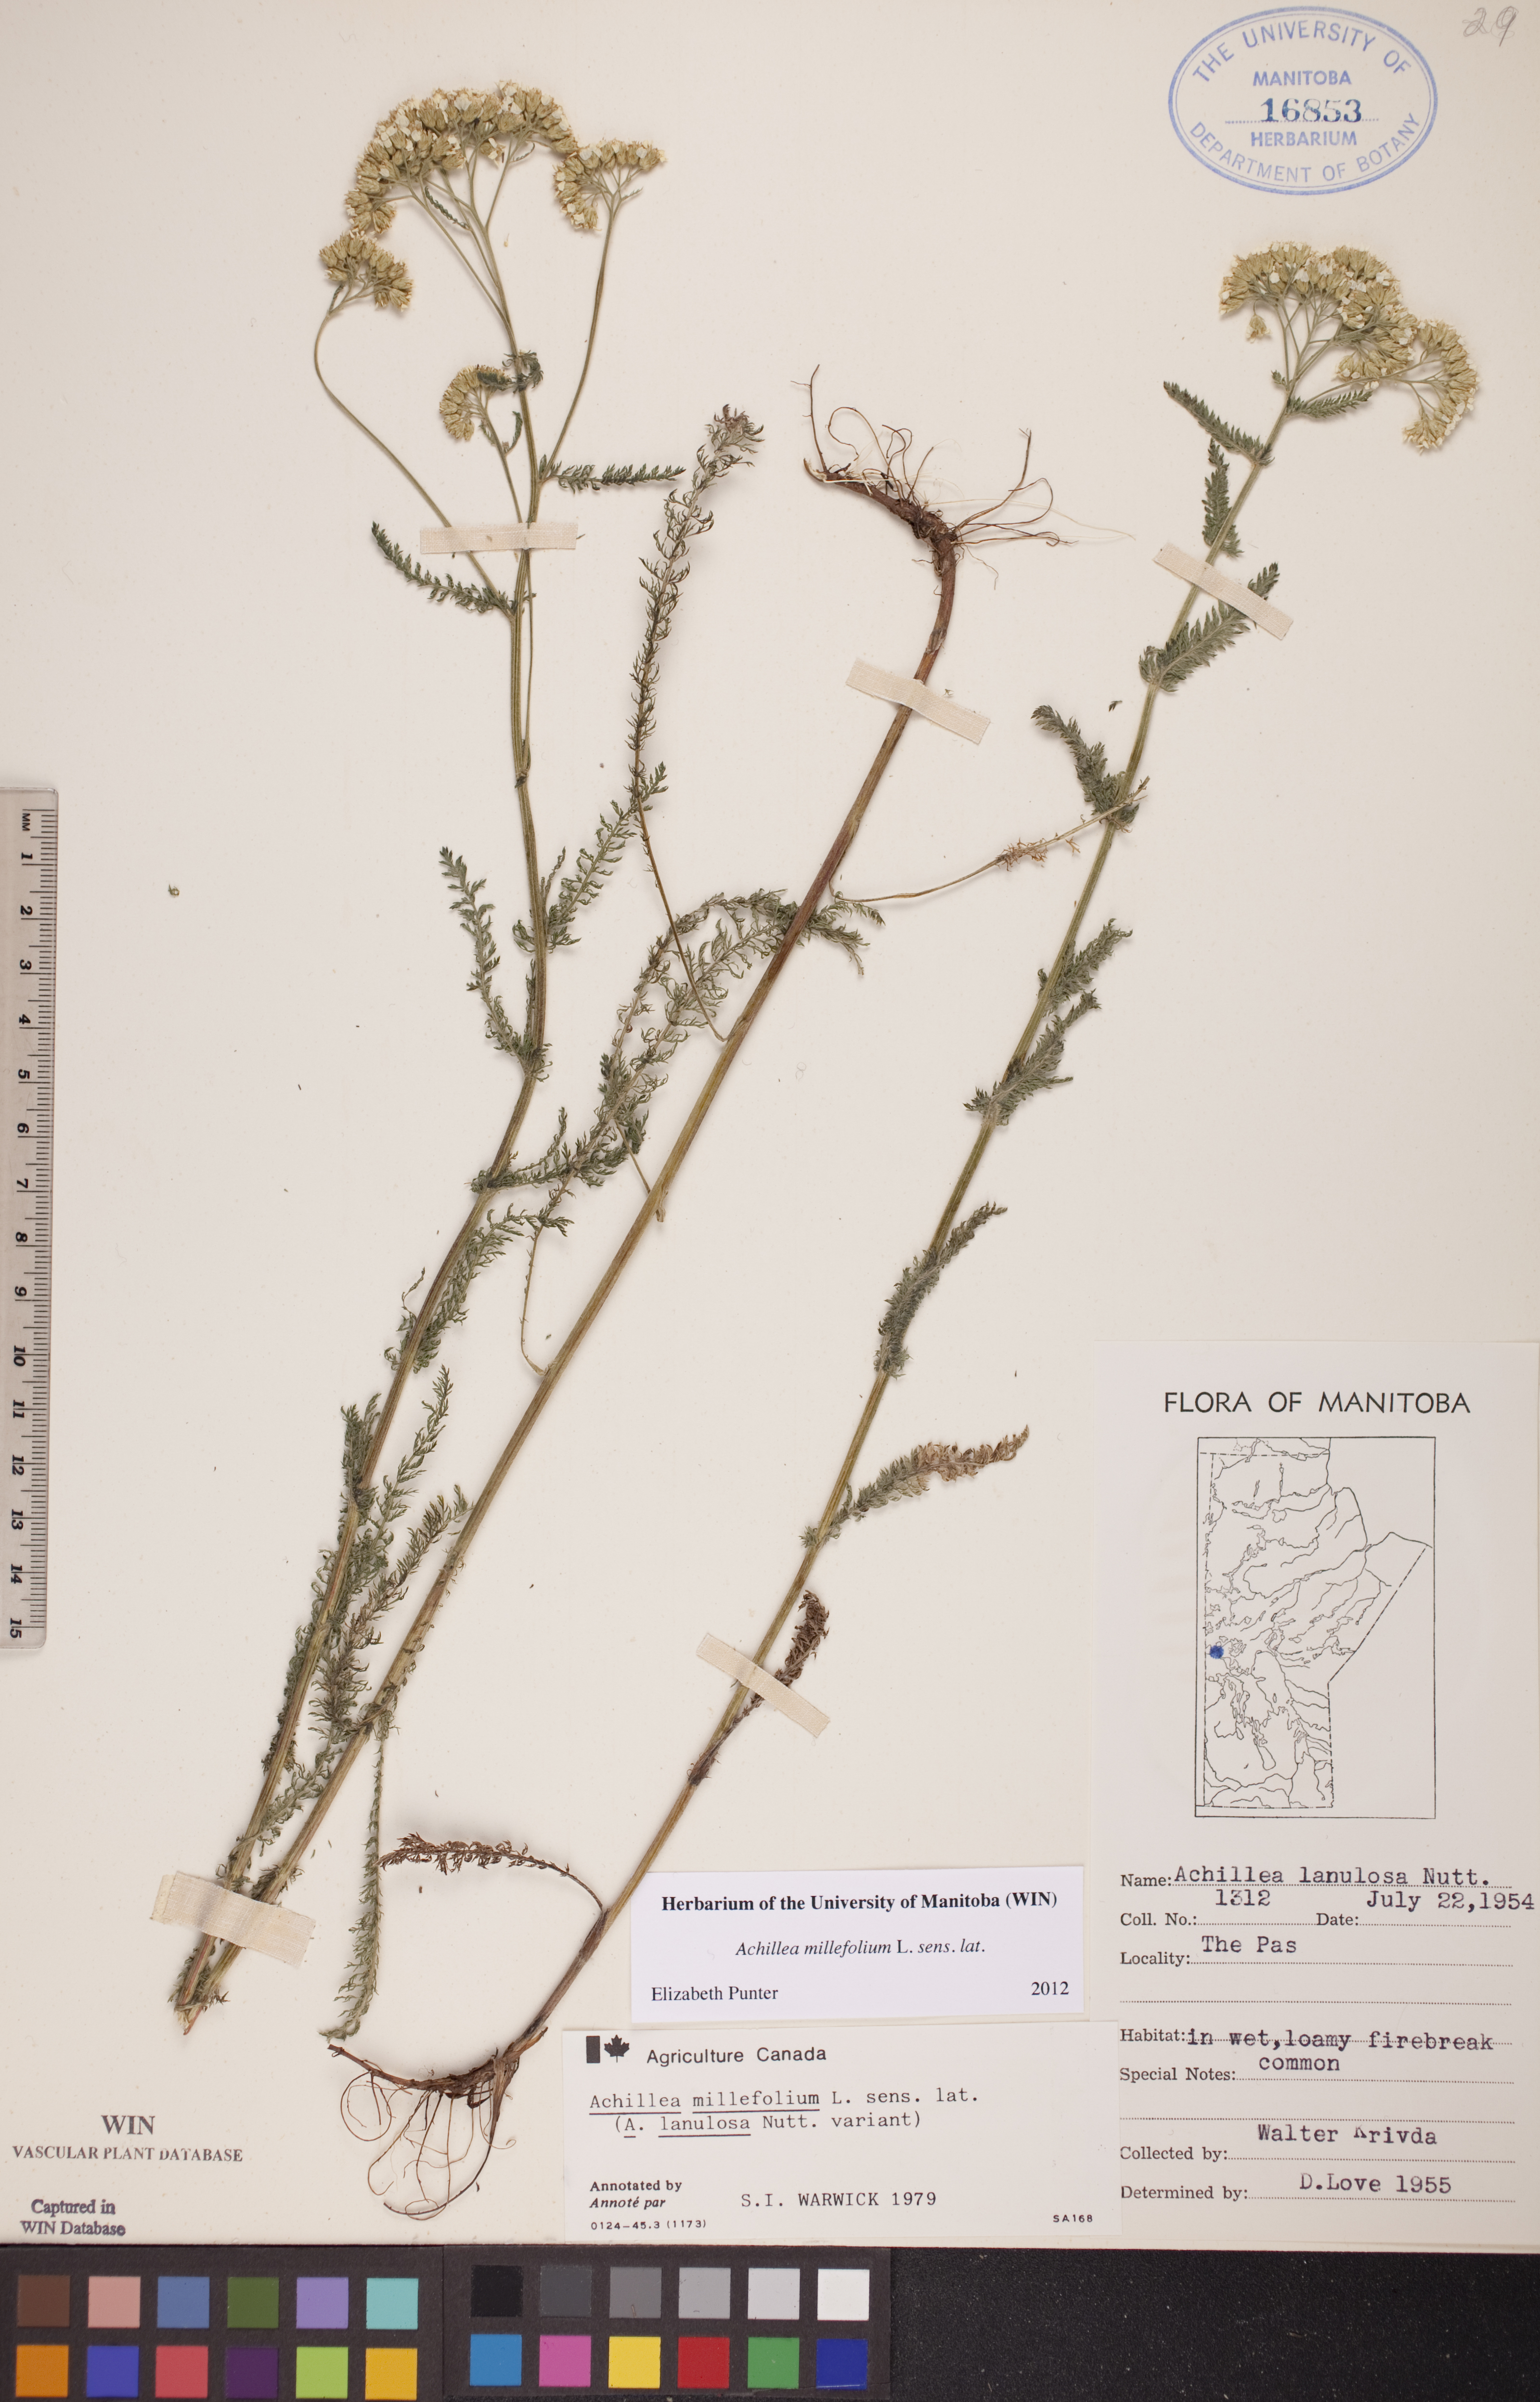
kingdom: Plantae
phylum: Tracheophyta
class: Magnoliopsida
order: Asterales
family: Asteraceae
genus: Achillea
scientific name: Achillea millefolium
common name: Yarrow
